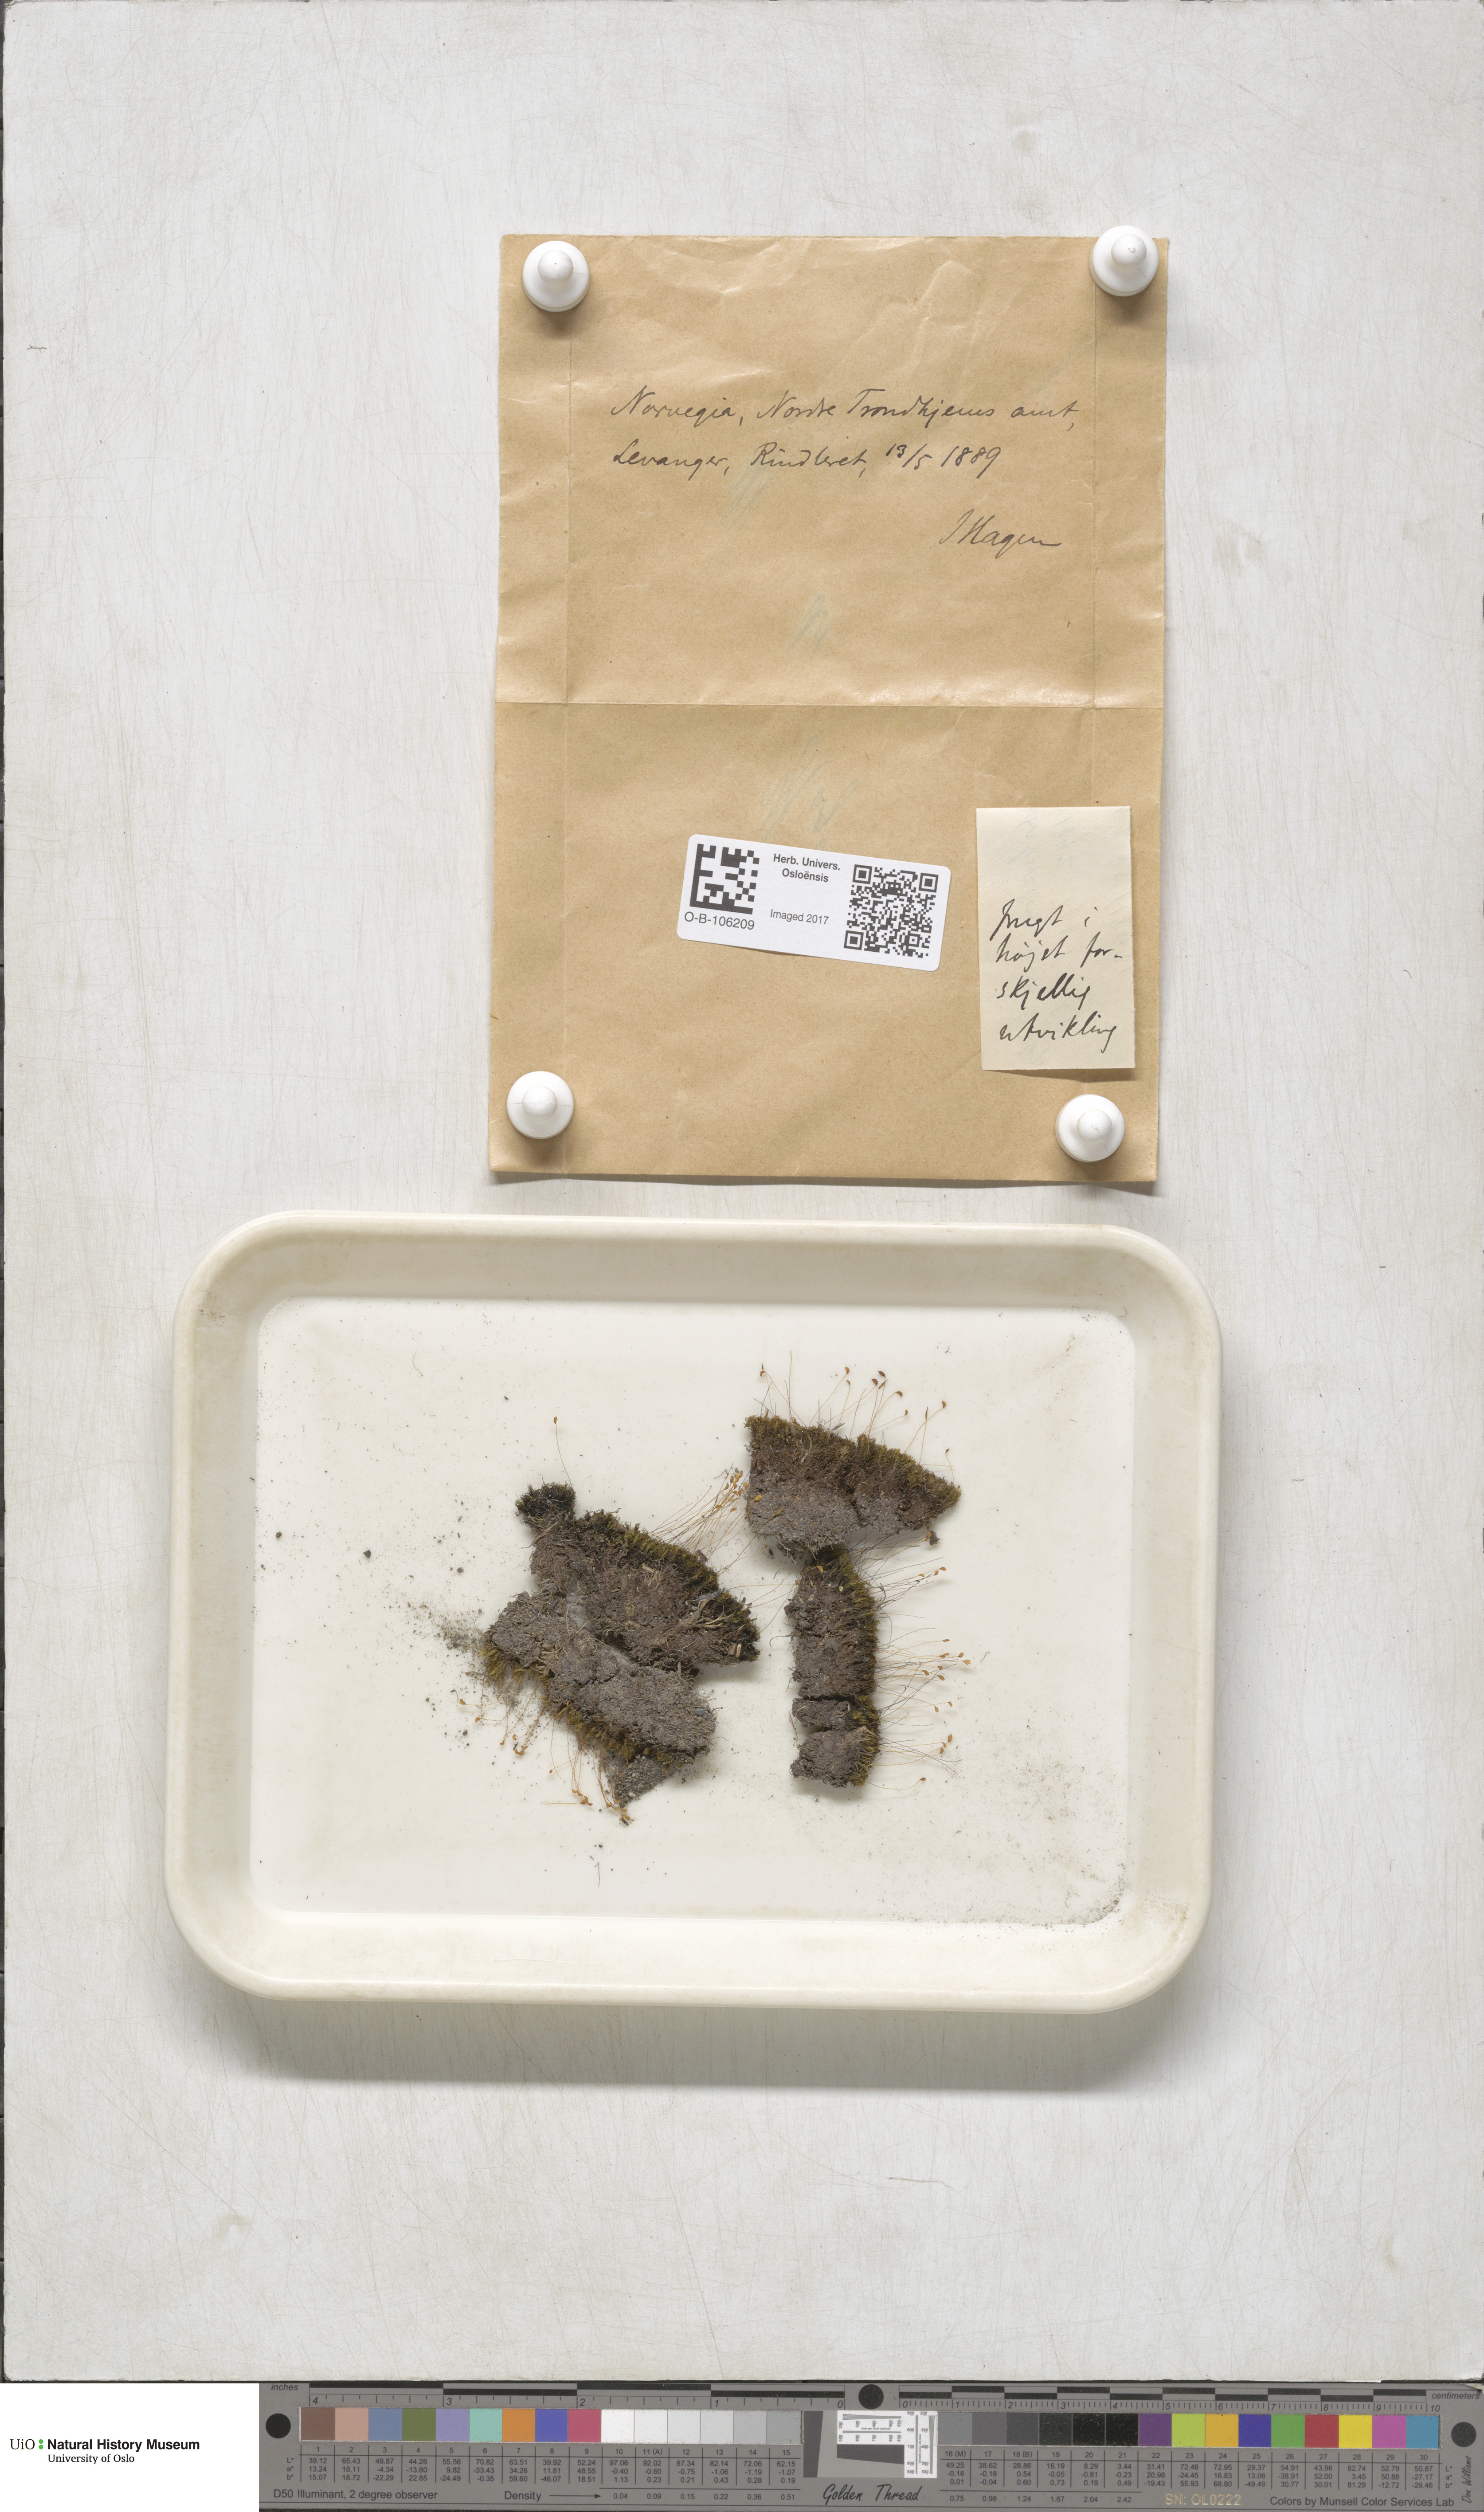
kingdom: Plantae
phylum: Bryophyta
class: Bryopsida
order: Dicranales
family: Rhabdoweisiaceae
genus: Brideliella
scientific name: Brideliella wahlenbergii
